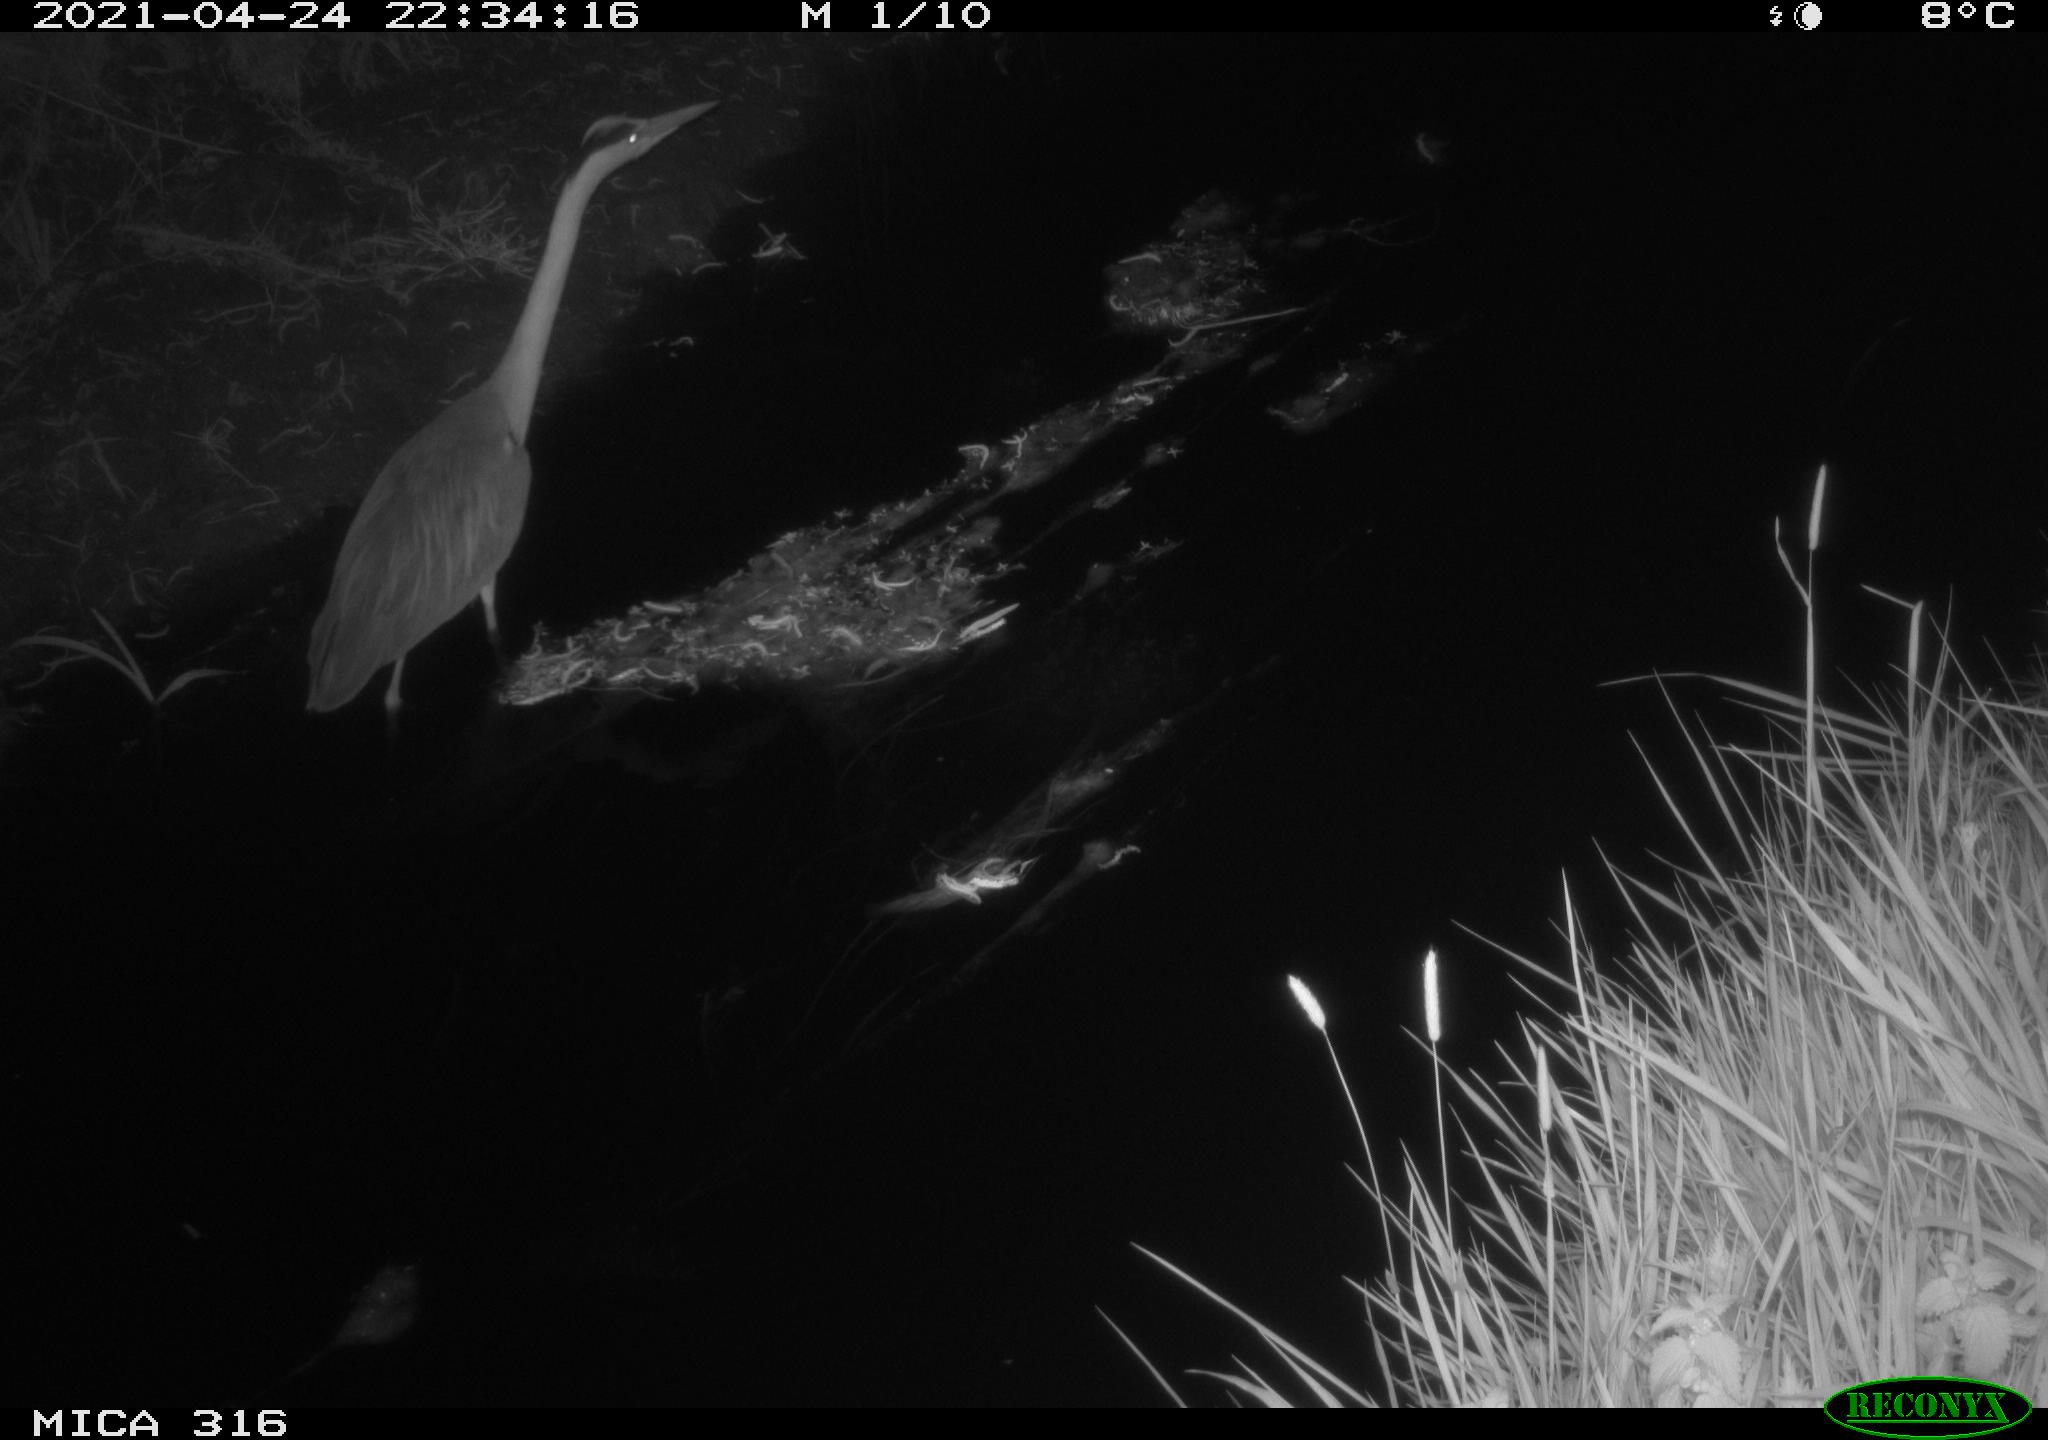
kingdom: Animalia
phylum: Chordata
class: Aves
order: Pelecaniformes
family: Ardeidae
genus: Ardea
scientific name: Ardea
